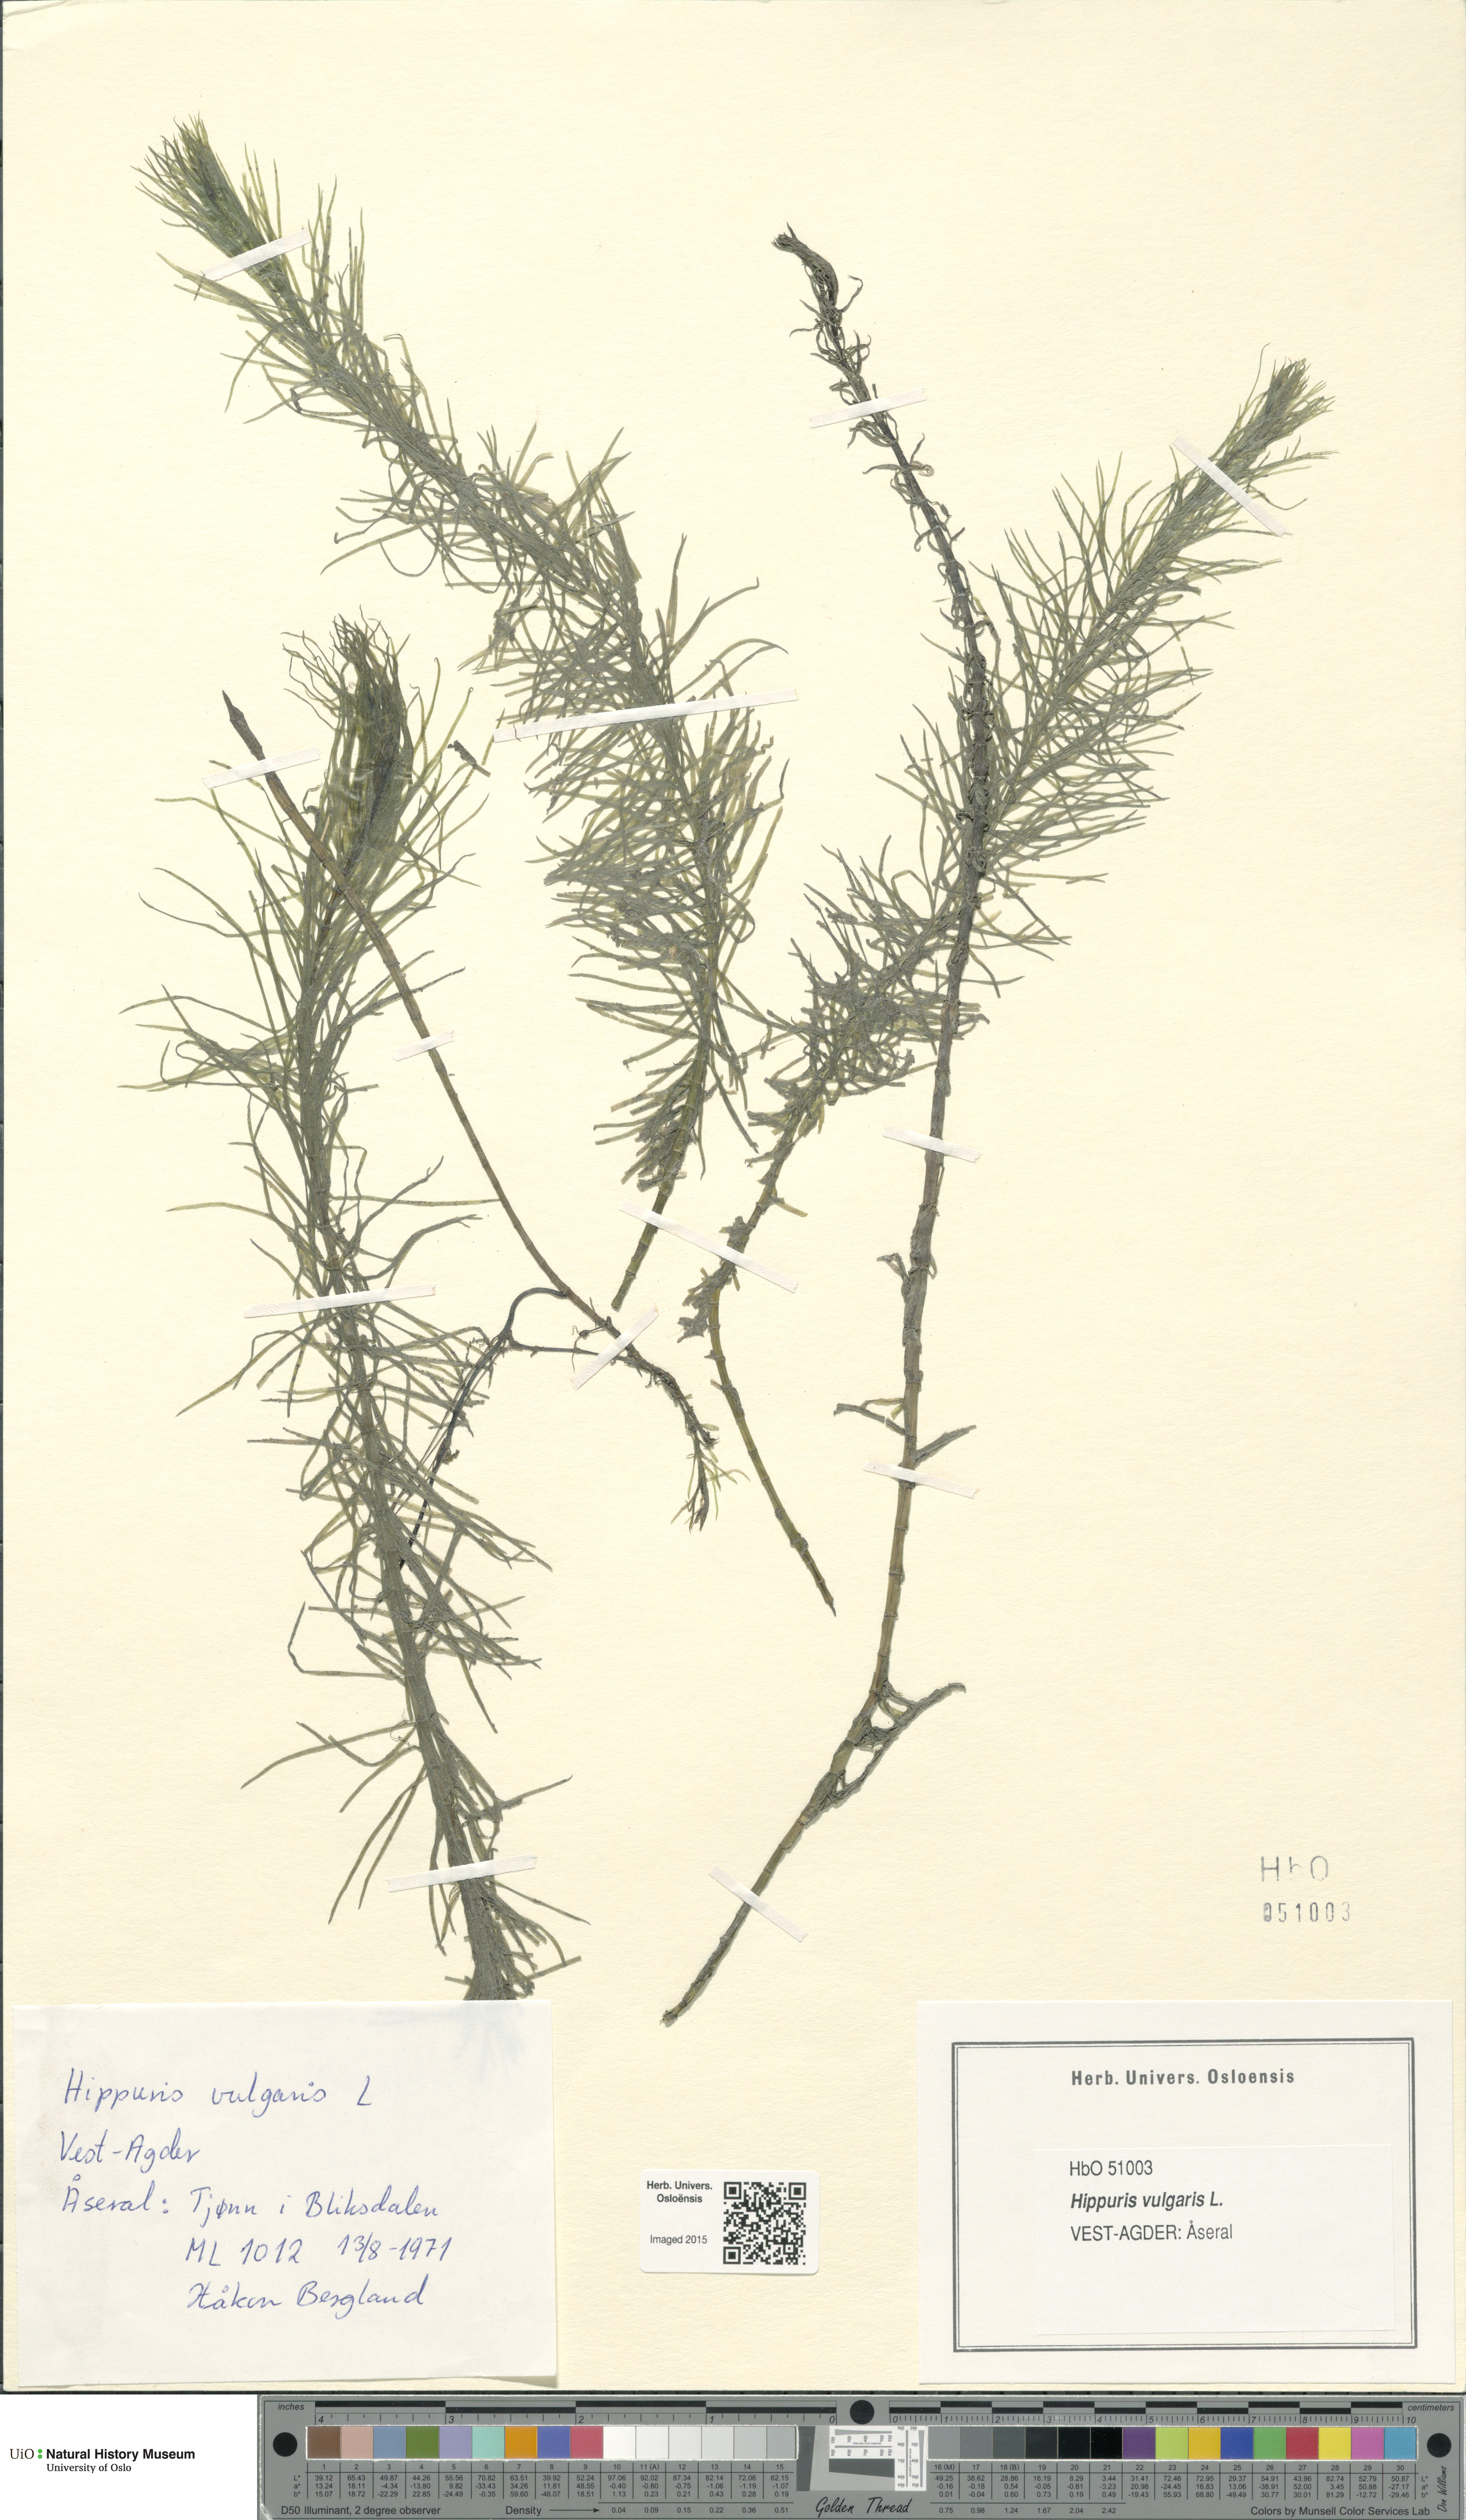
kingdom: Plantae
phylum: Tracheophyta
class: Magnoliopsida
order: Lamiales
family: Plantaginaceae
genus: Hippuris
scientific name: Hippuris vulgaris
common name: Mare's-tail
